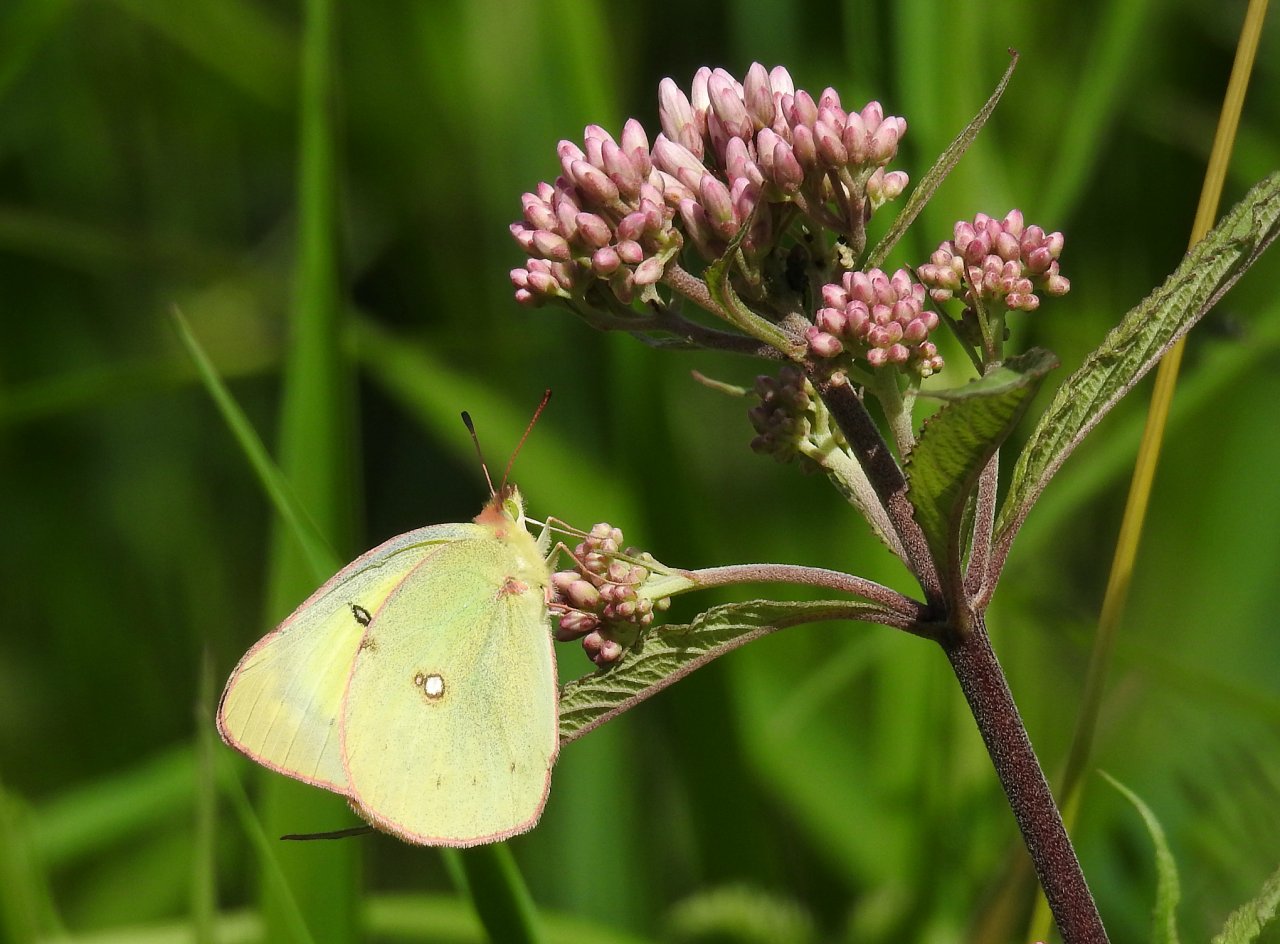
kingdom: Animalia
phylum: Arthropoda
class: Insecta
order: Lepidoptera
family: Pieridae
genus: Colias
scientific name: Colias philodice
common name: Clouded Sulphur
